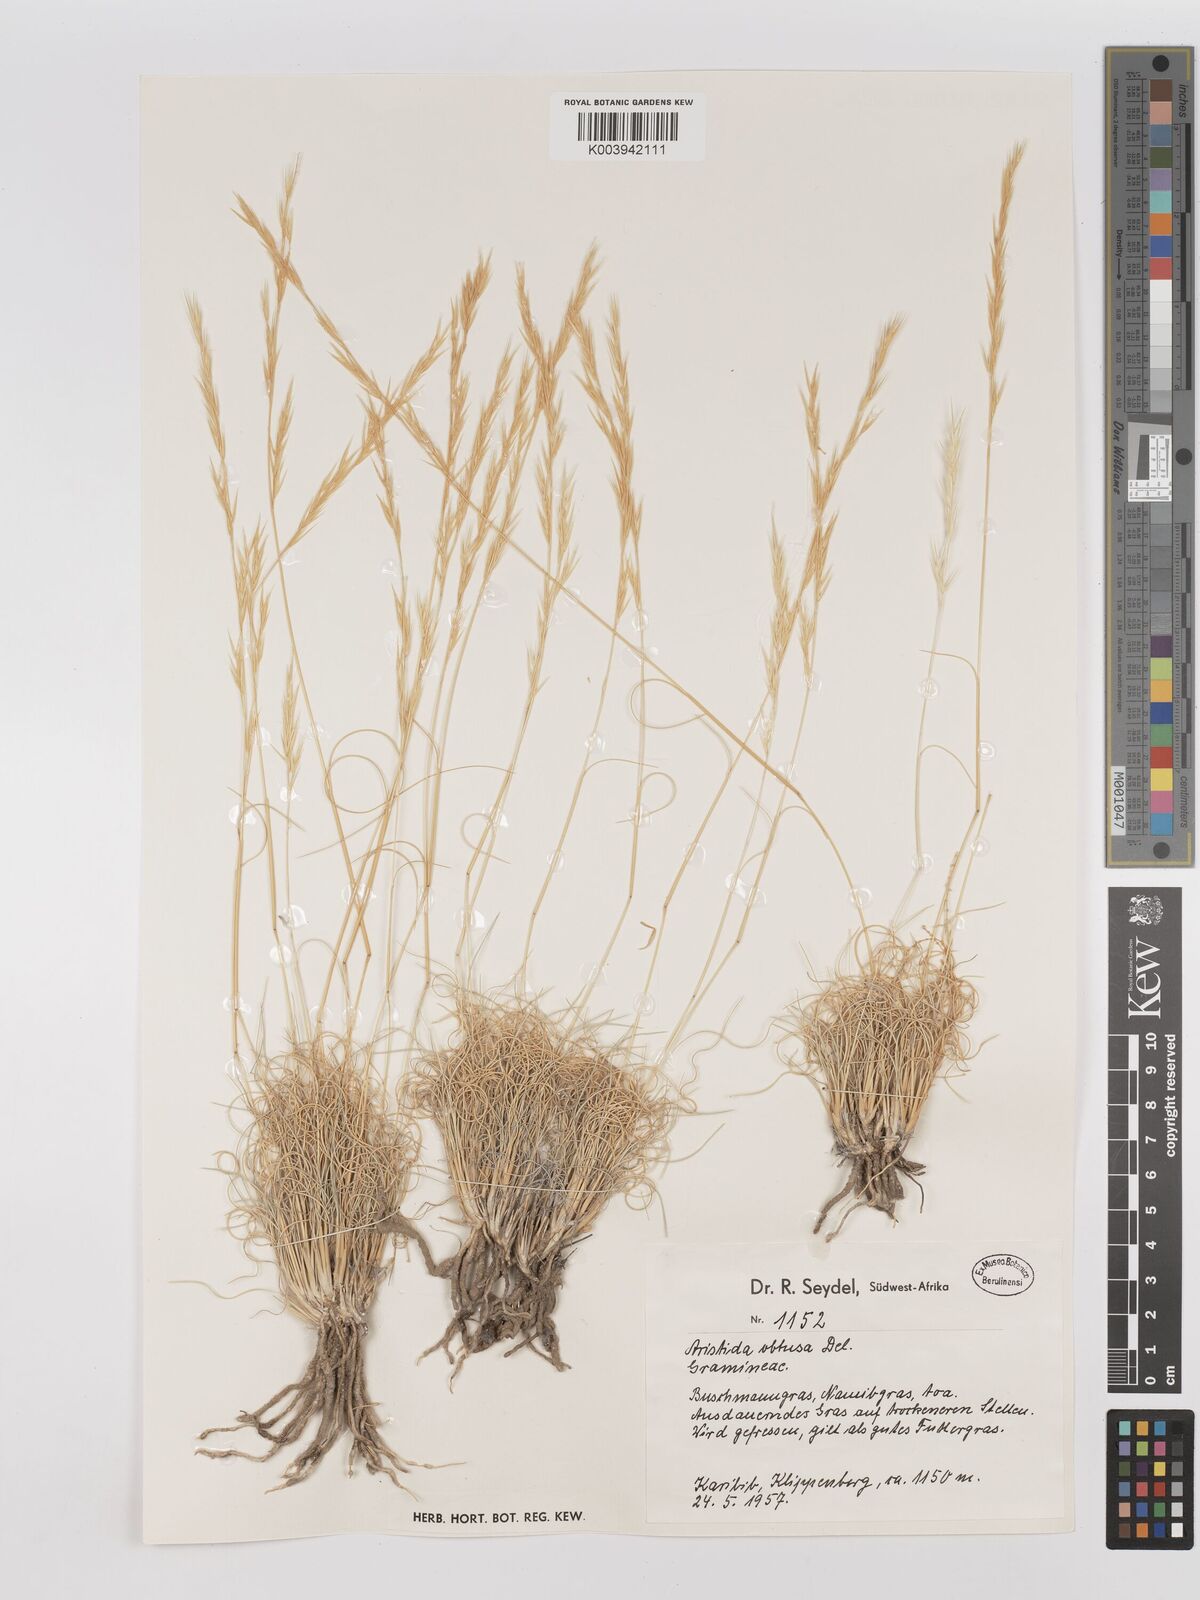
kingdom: Plantae
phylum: Tracheophyta
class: Liliopsida
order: Poales
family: Poaceae
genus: Stipagrostis
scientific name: Stipagrostis obtusa
